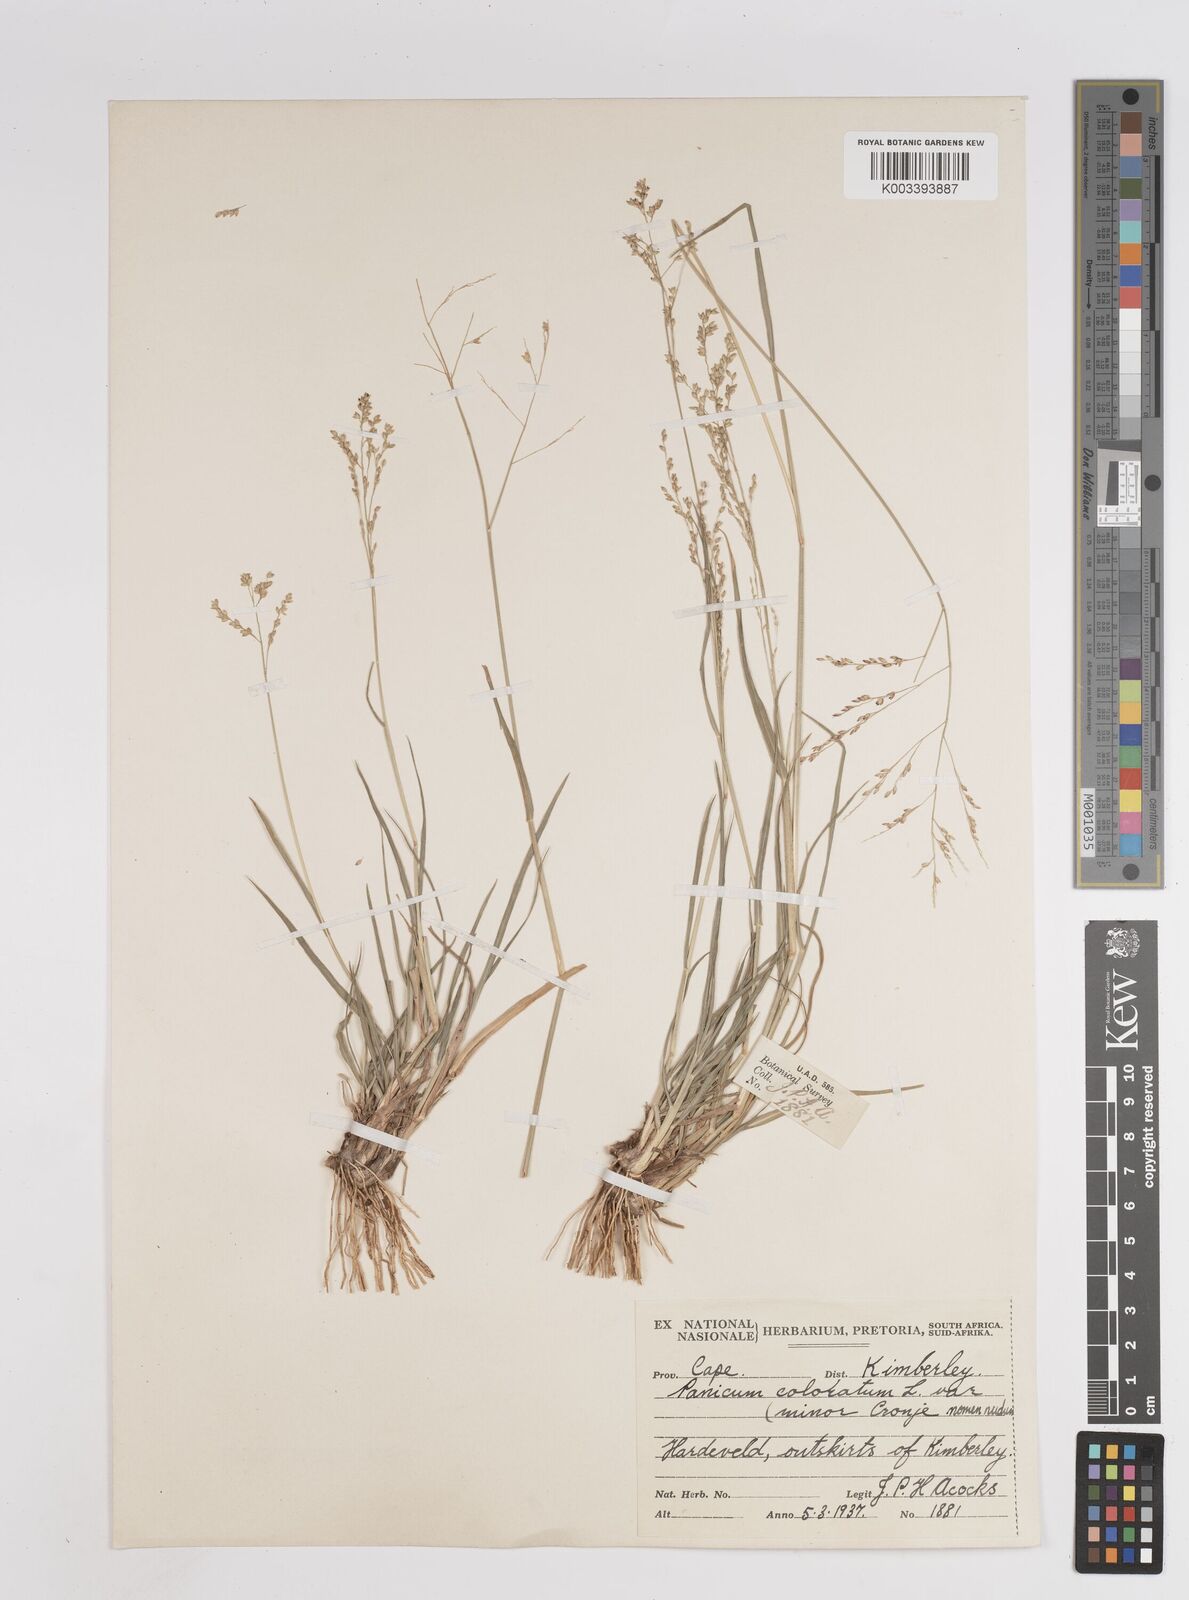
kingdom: Plantae
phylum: Tracheophyta
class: Liliopsida
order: Poales
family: Poaceae
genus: Panicum
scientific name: Panicum
